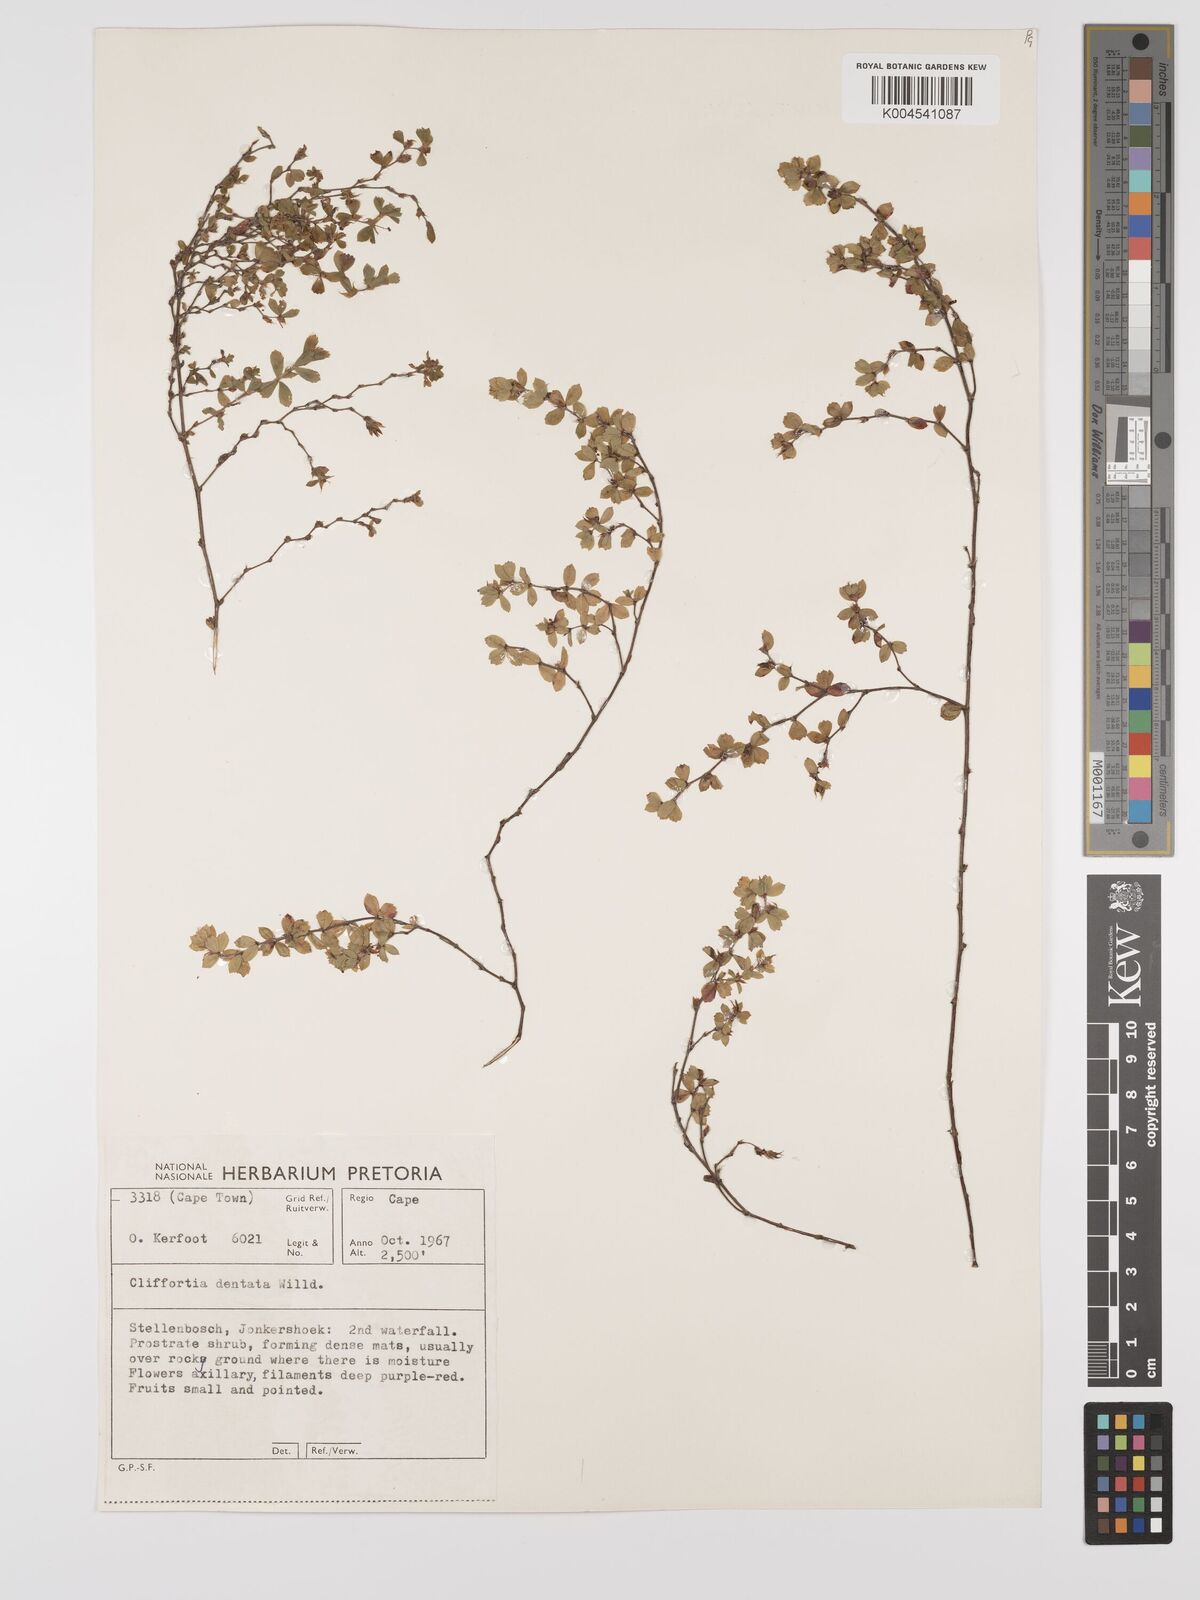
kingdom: Plantae
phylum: Tracheophyta
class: Magnoliopsida
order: Rosales
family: Rosaceae
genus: Cliffortia
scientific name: Cliffortia
